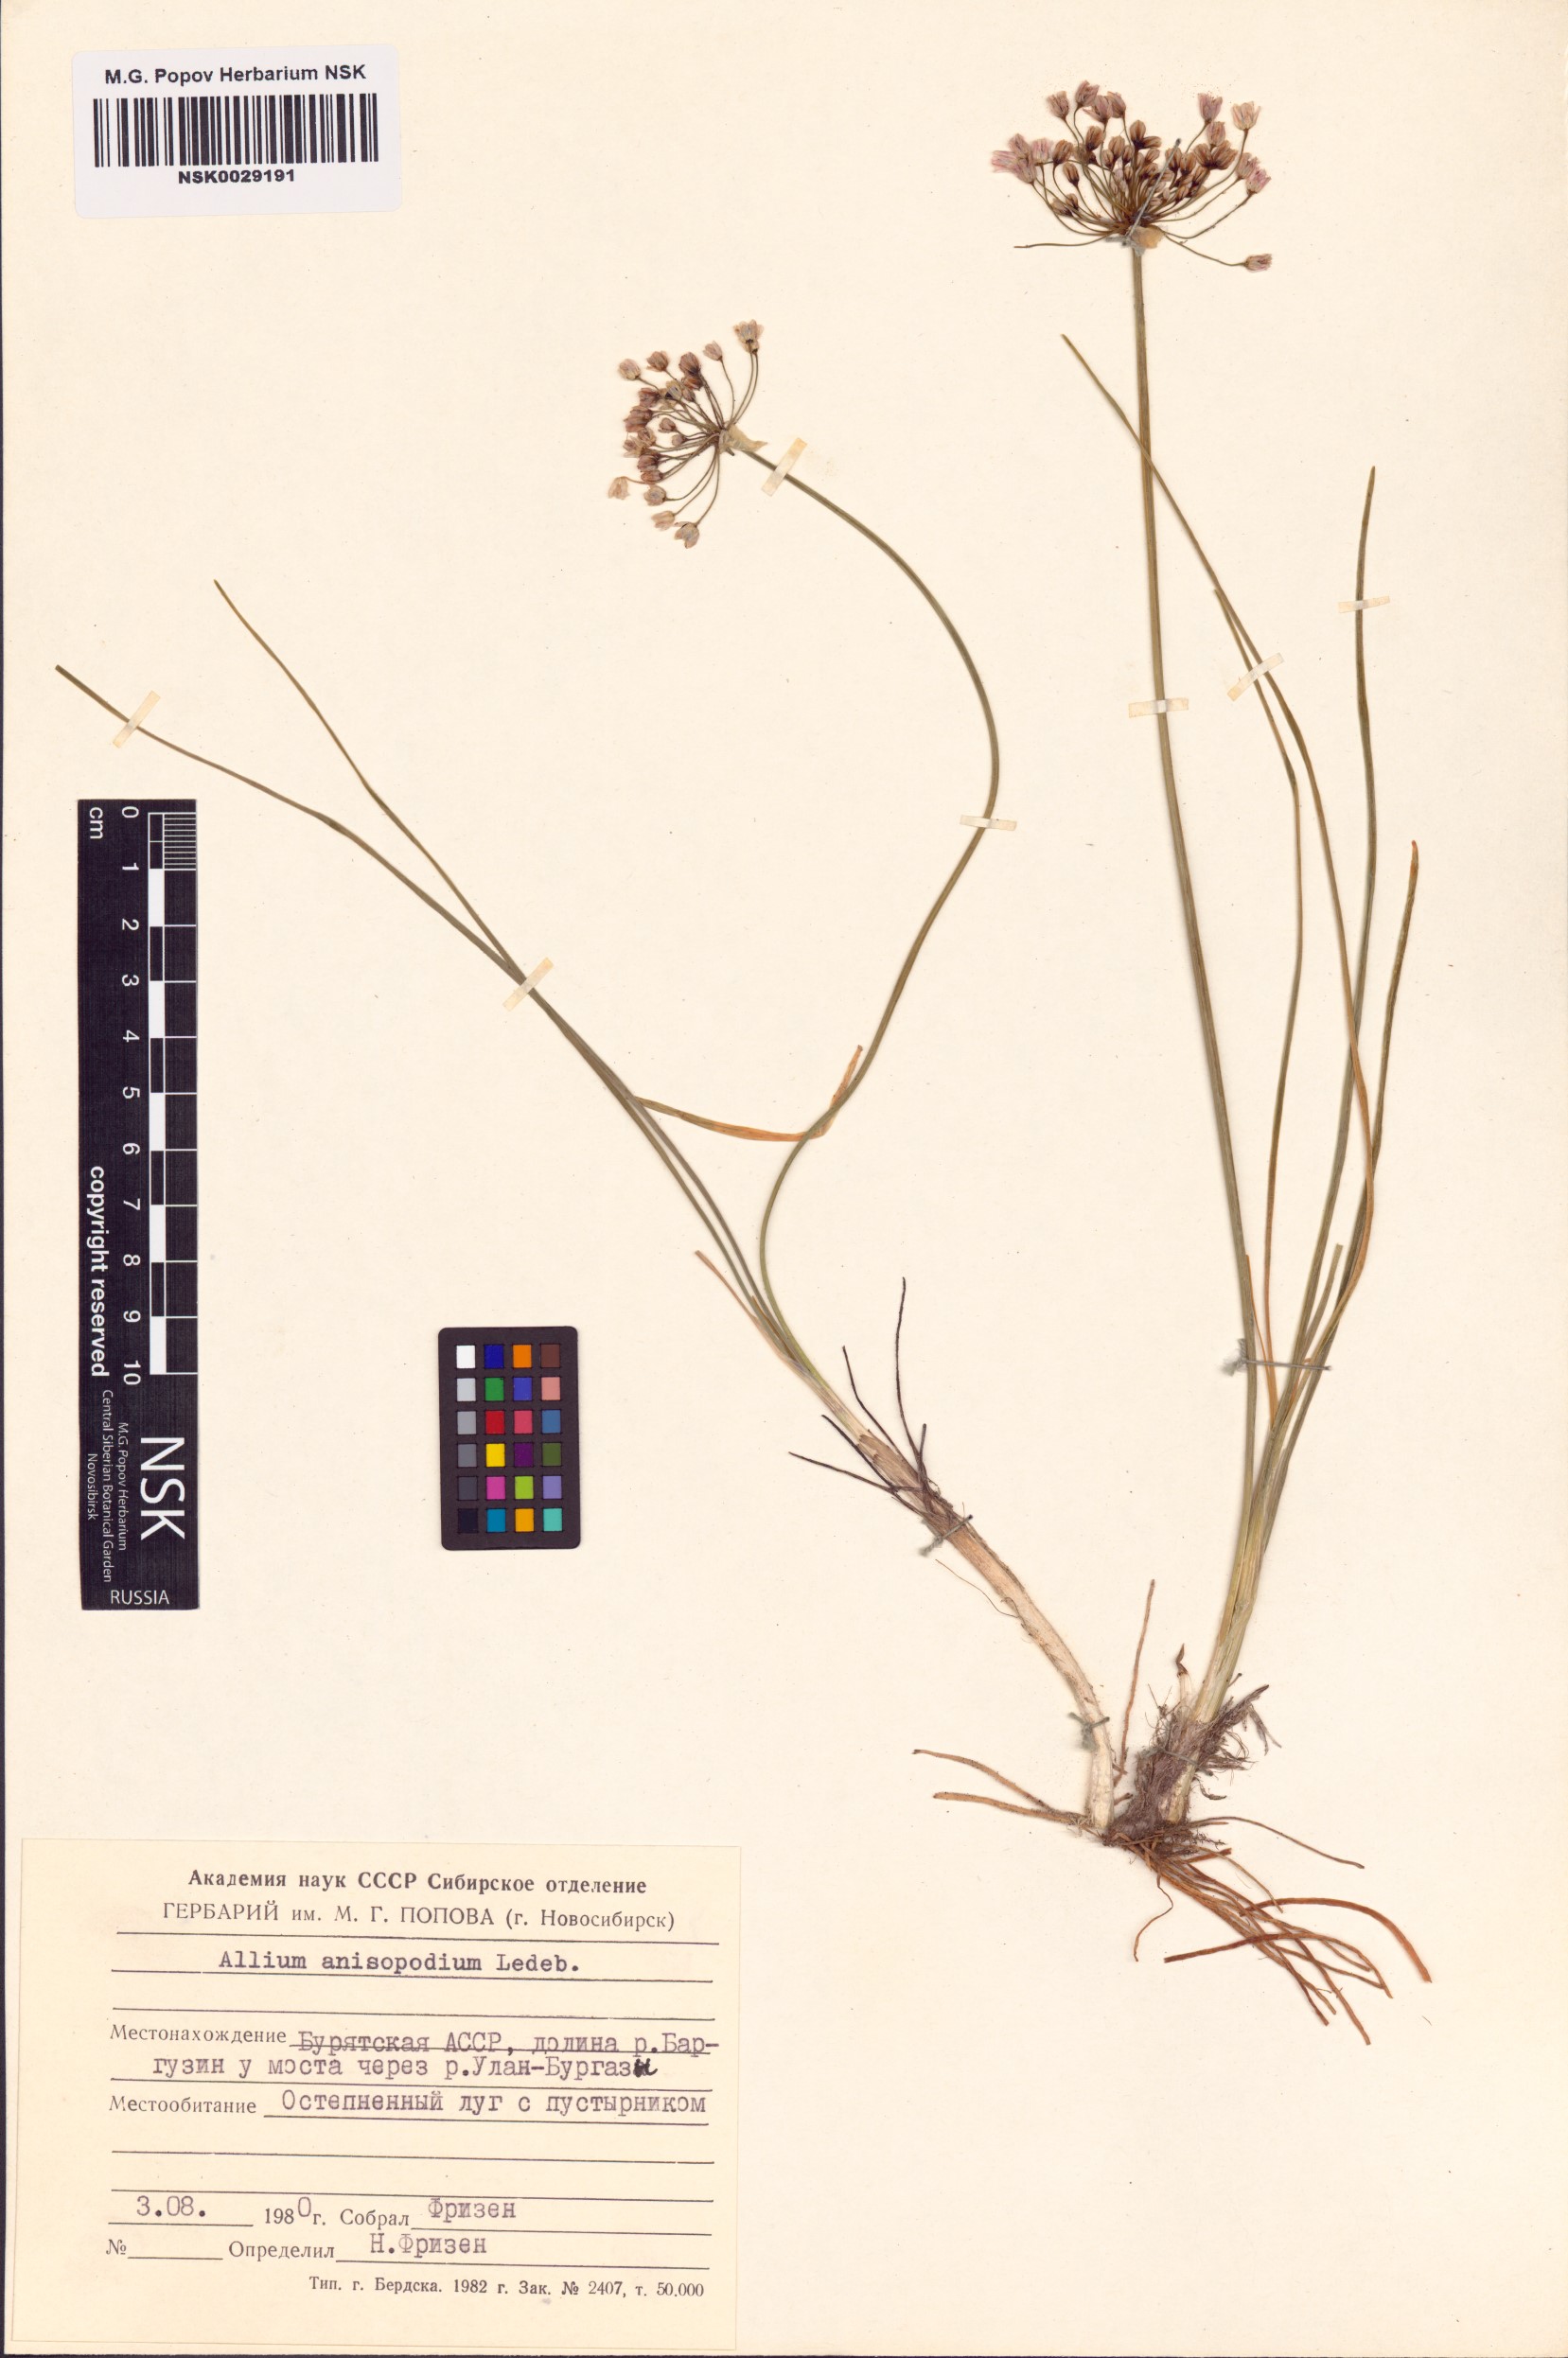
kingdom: Plantae
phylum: Tracheophyta
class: Liliopsida
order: Asparagales
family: Amaryllidaceae
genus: Allium
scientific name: Allium anisopodium
